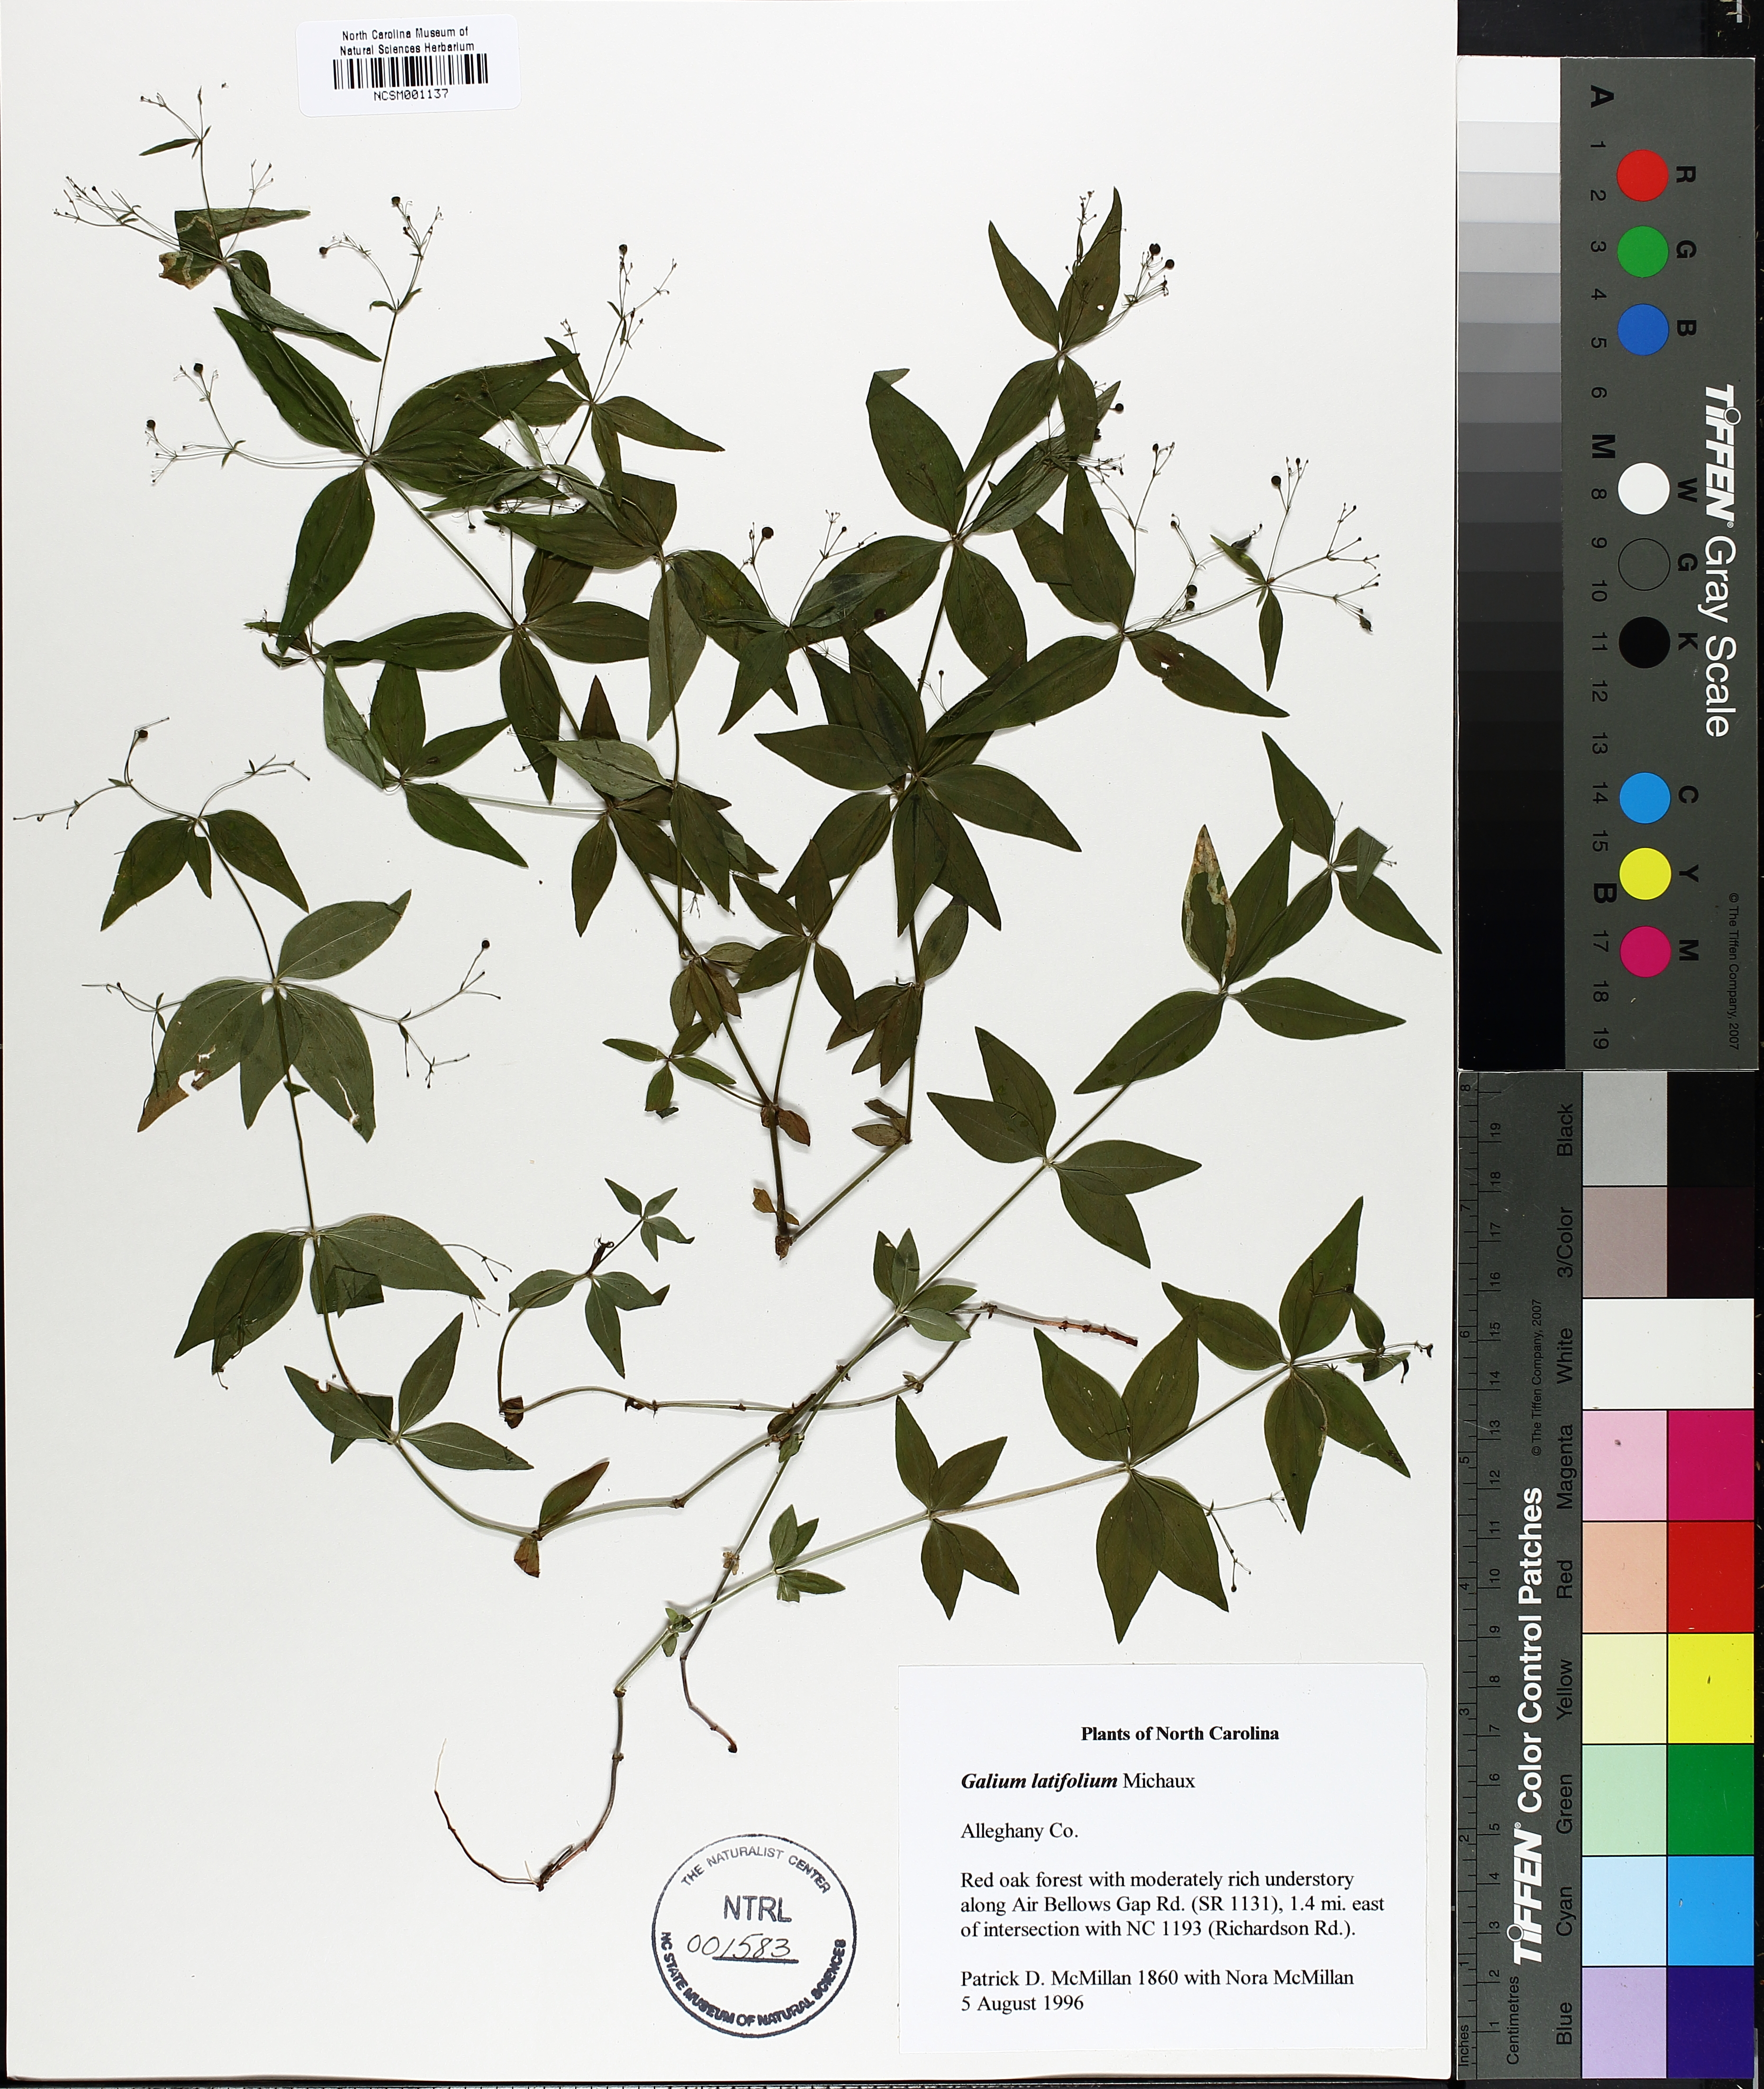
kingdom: Plantae
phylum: Tracheophyta
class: Magnoliopsida
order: Gentianales
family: Rubiaceae
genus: Galium
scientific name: Galium latifolium
